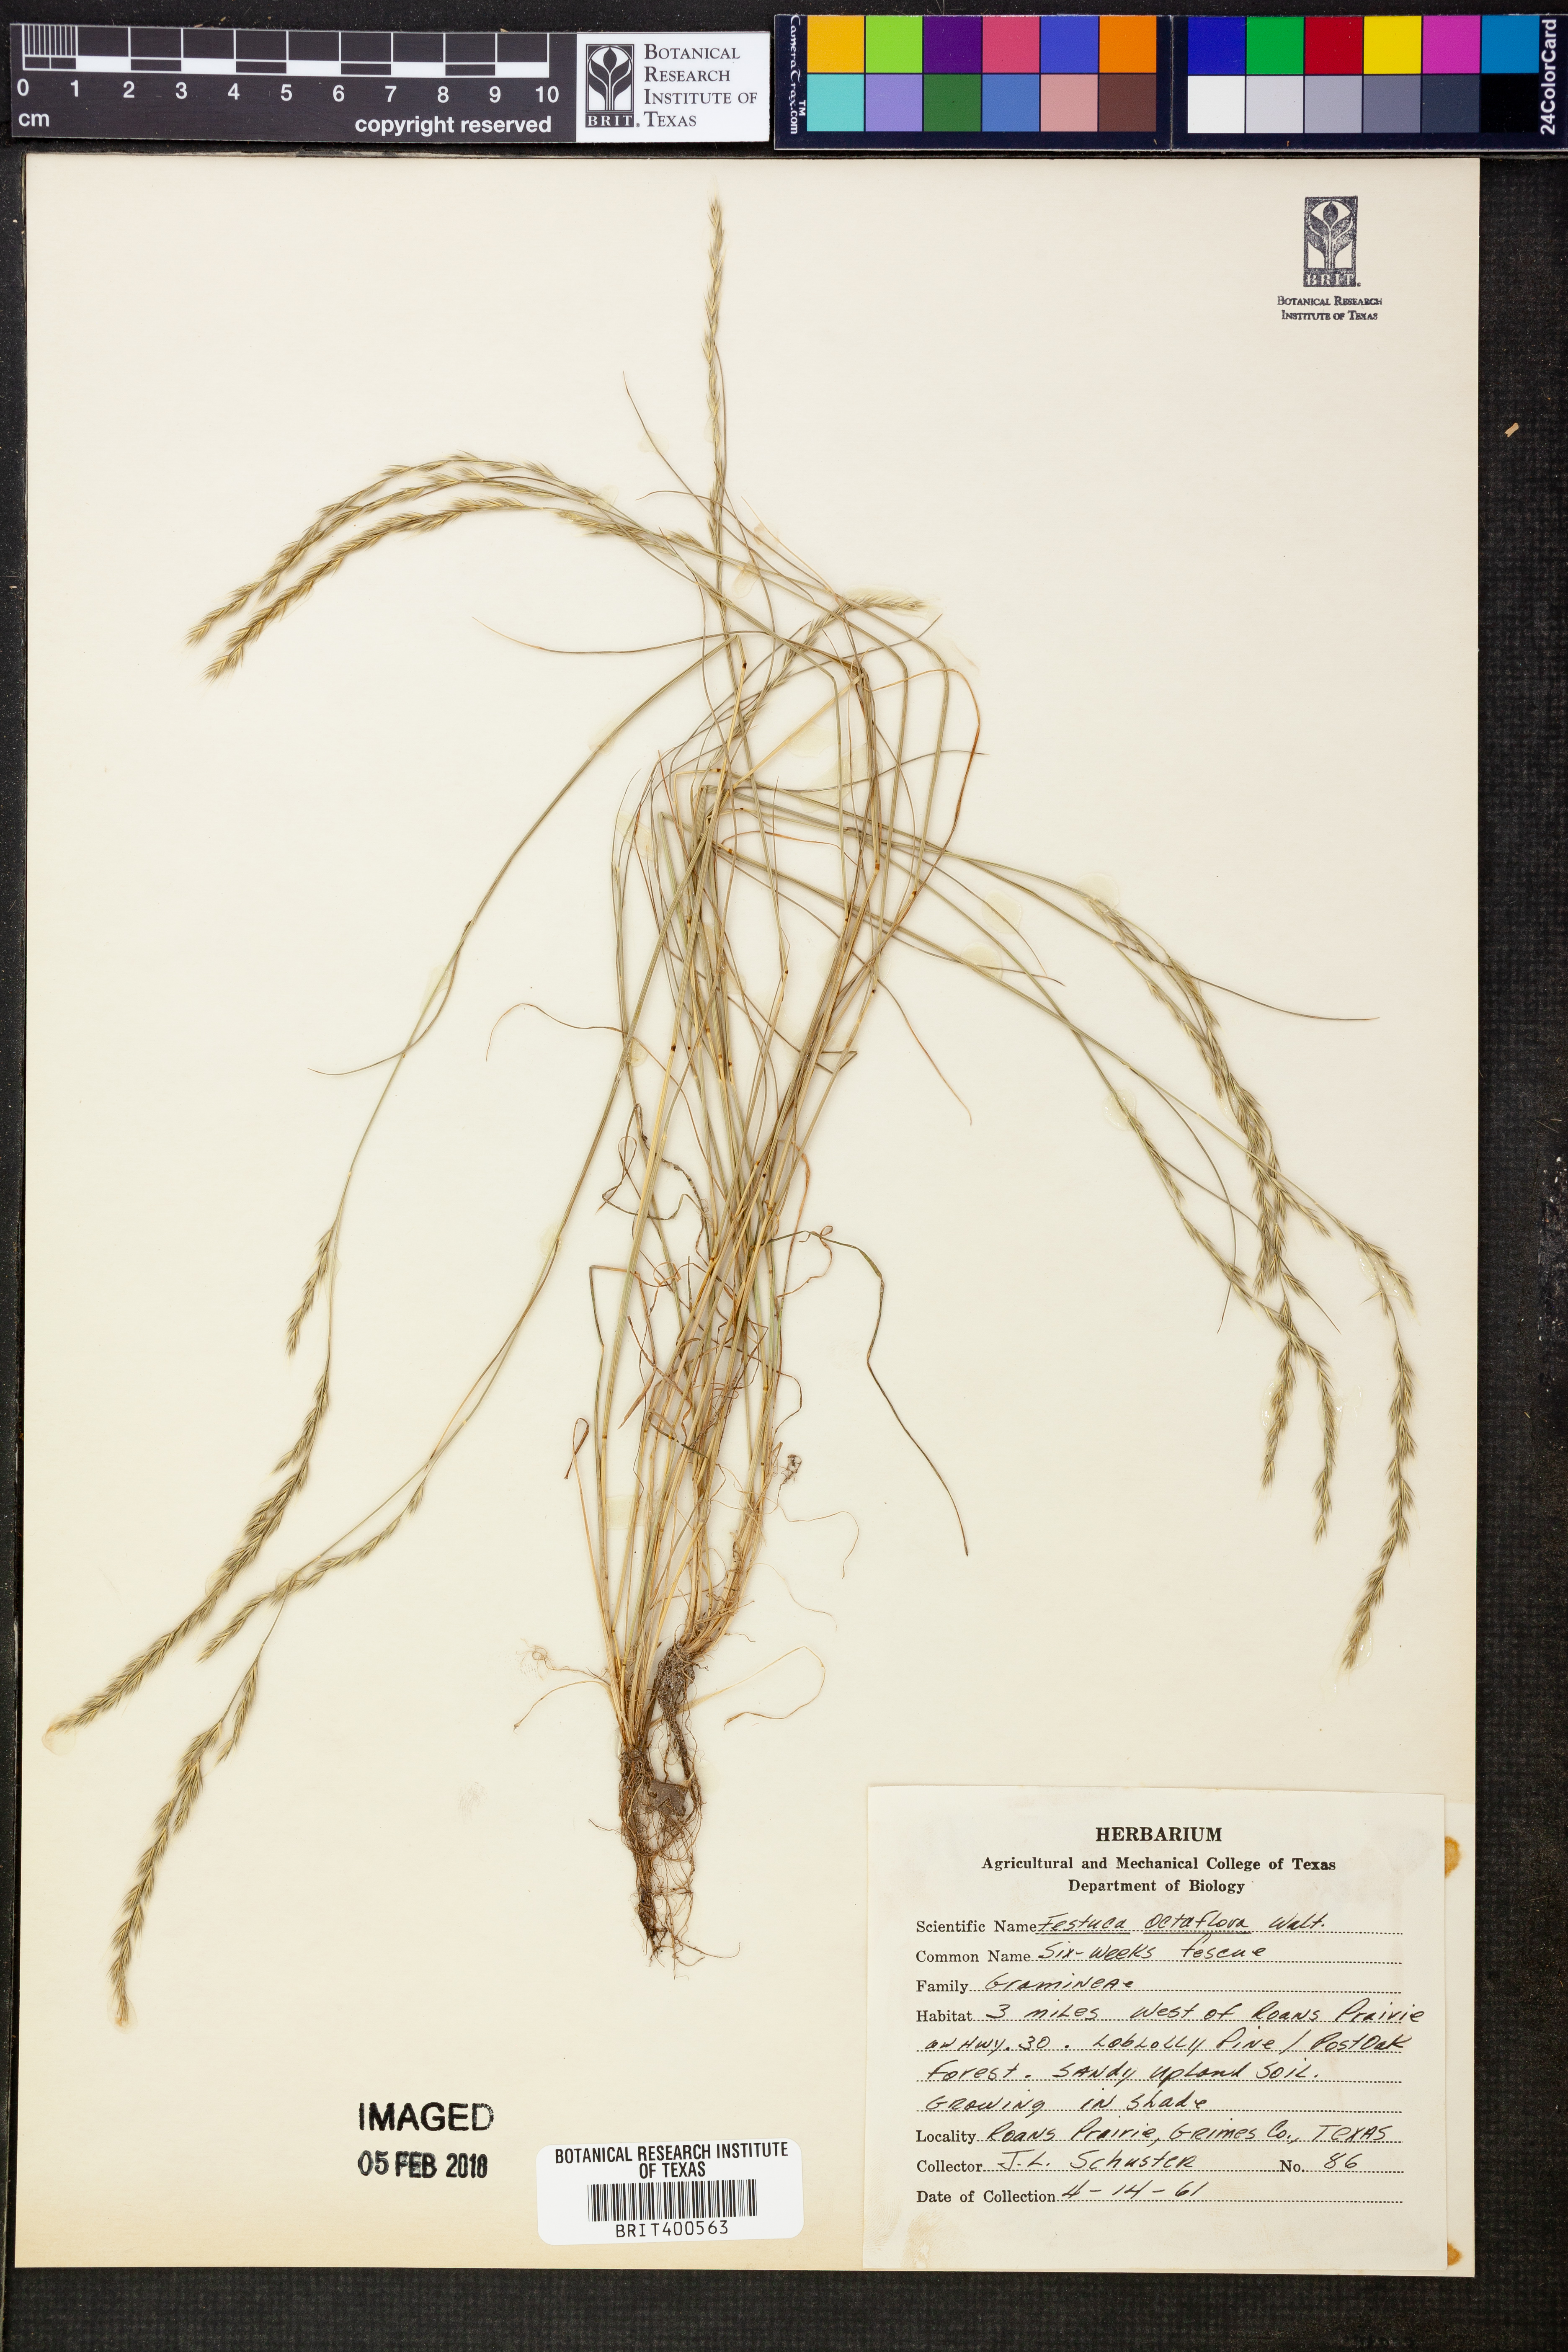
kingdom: Plantae
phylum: Tracheophyta
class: Liliopsida
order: Poales
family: Poaceae
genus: Festuca
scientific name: Festuca octoflora
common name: Sixweeks grass
